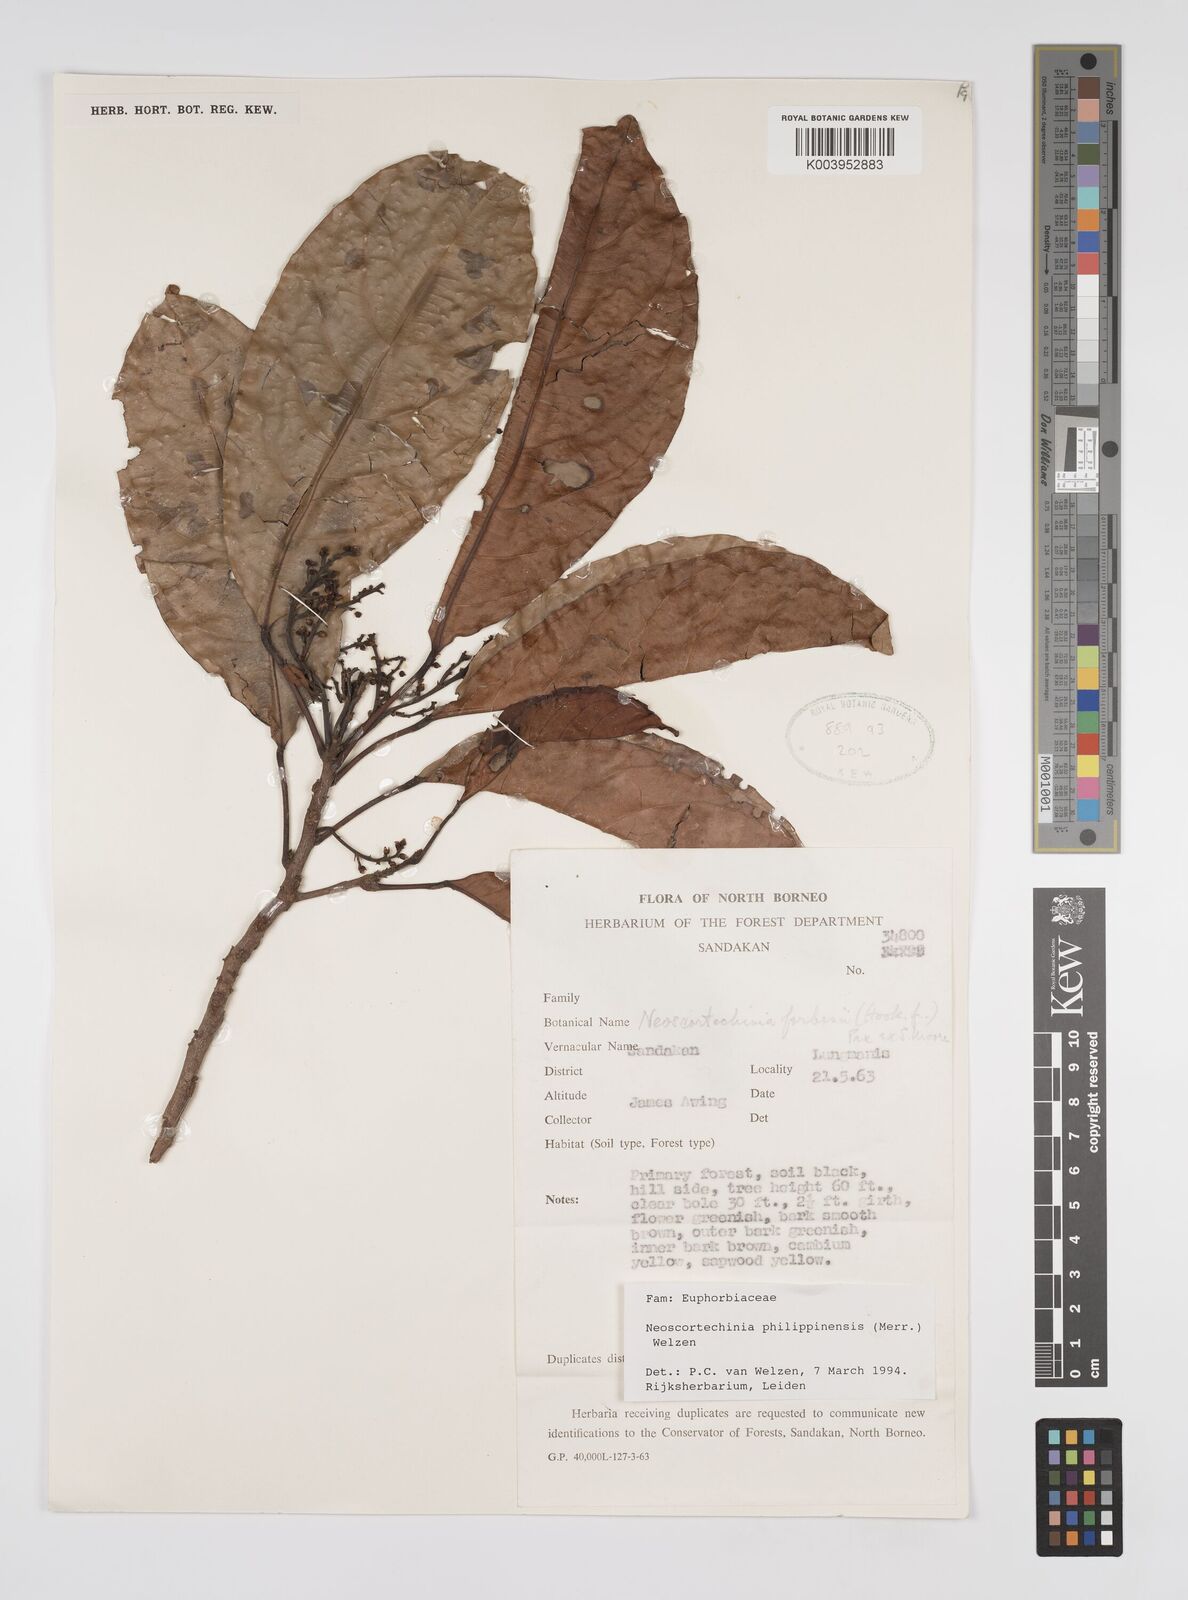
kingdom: Plantae
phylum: Tracheophyta
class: Magnoliopsida
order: Malpighiales
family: Euphorbiaceae
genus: Neoscortechinia
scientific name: Neoscortechinia philippinensis
